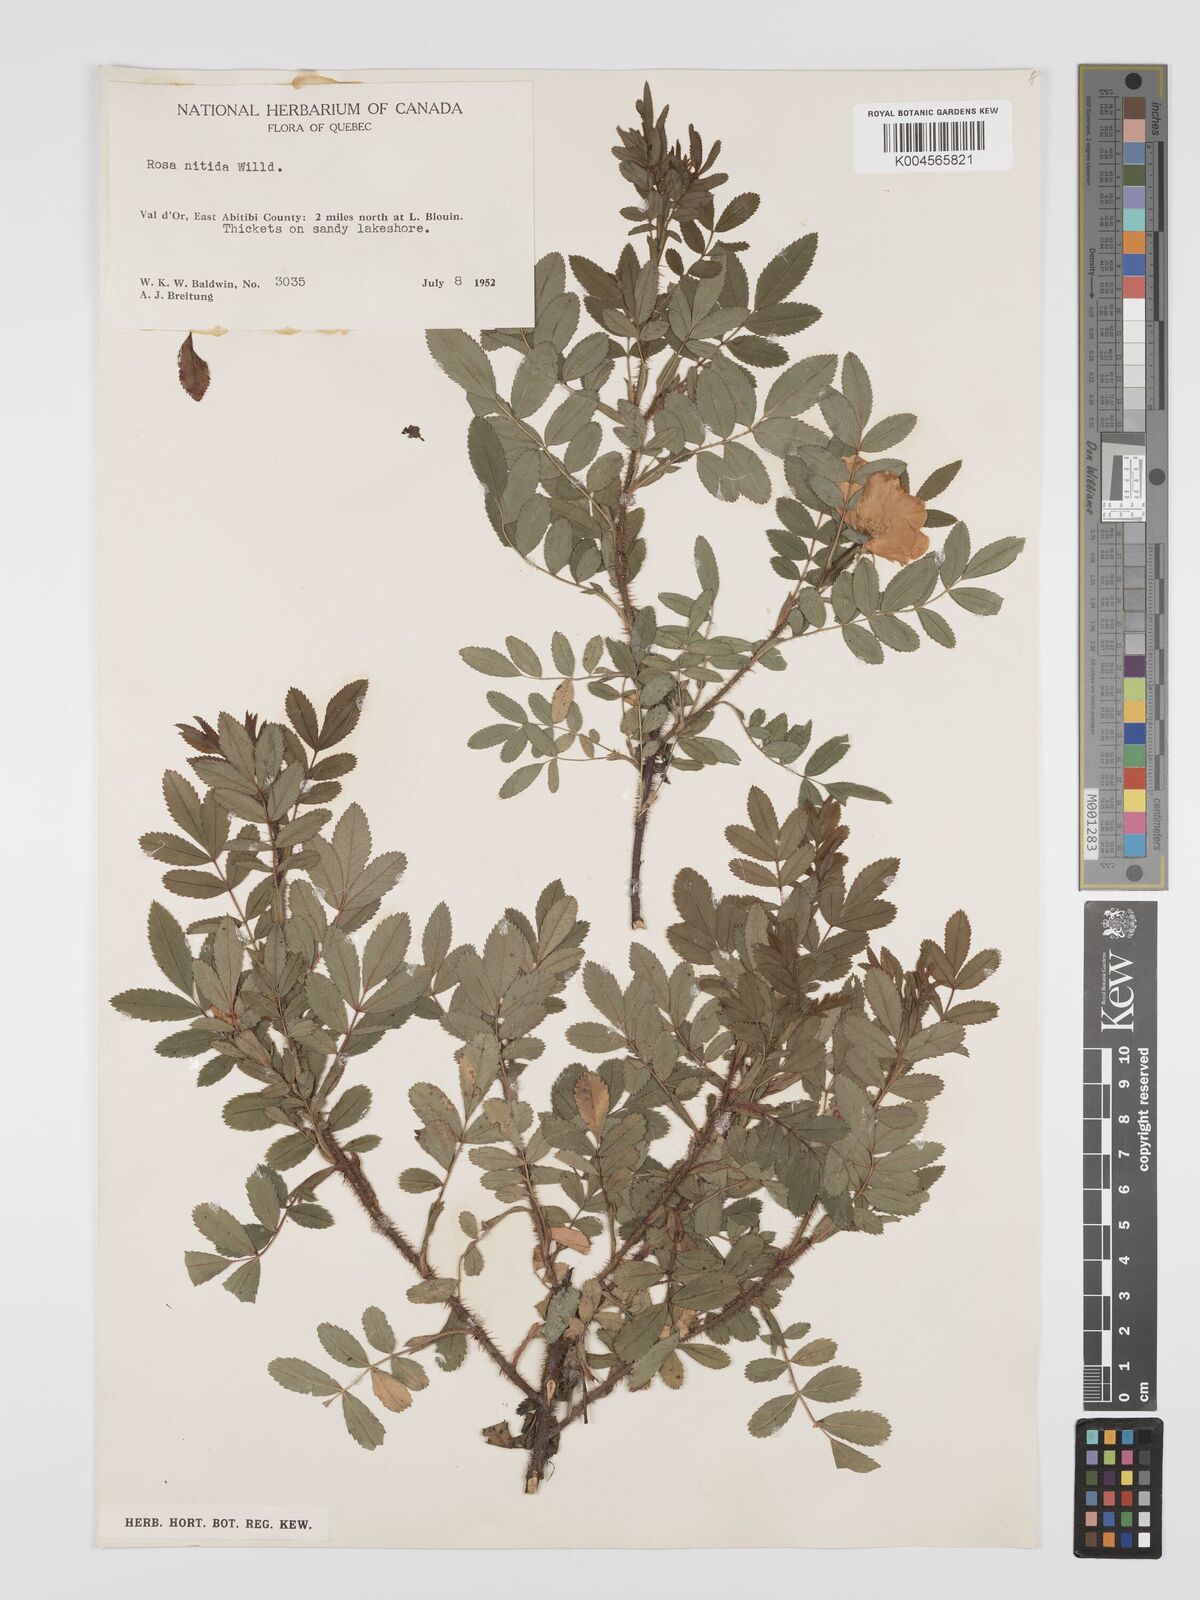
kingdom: Plantae
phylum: Tracheophyta
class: Magnoliopsida
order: Rosales
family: Rosaceae
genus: Rosa
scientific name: Rosa nitida
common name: New england rose
